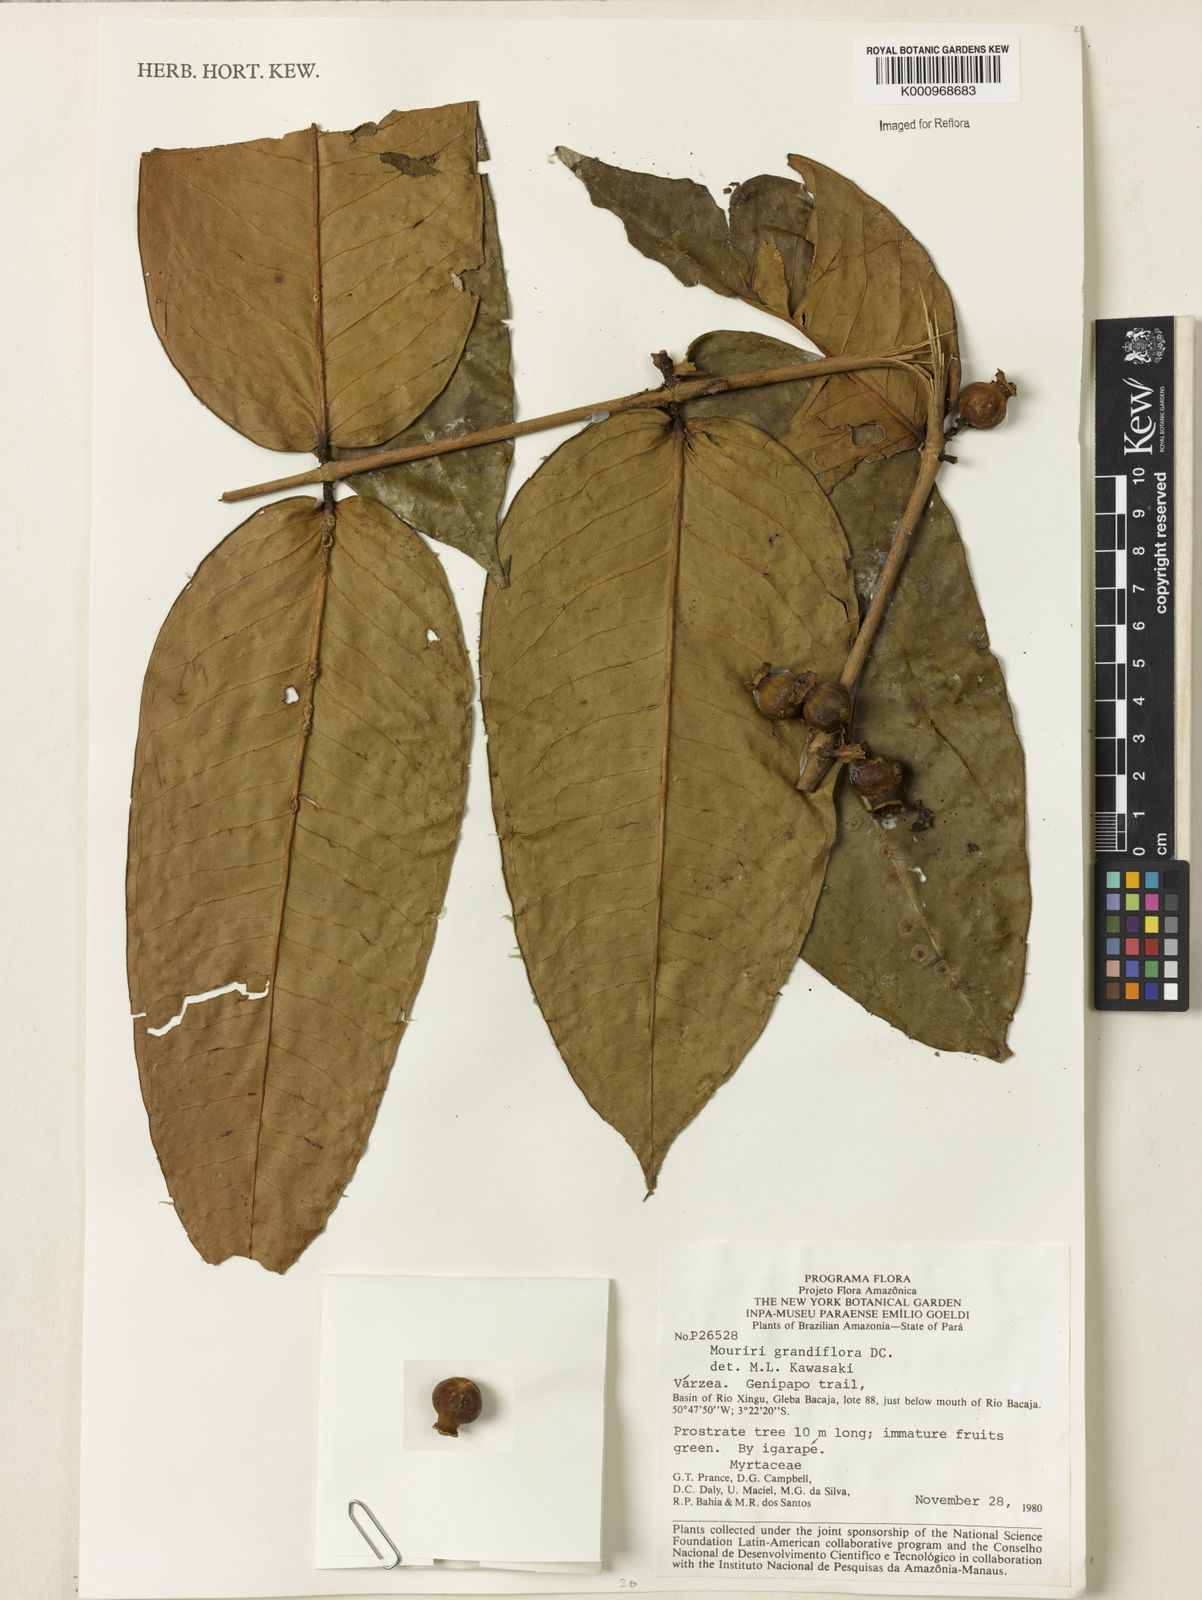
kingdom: Plantae
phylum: Tracheophyta
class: Magnoliopsida
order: Myrtales
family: Melastomataceae
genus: Mouriri
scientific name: Mouriri grandiflora
